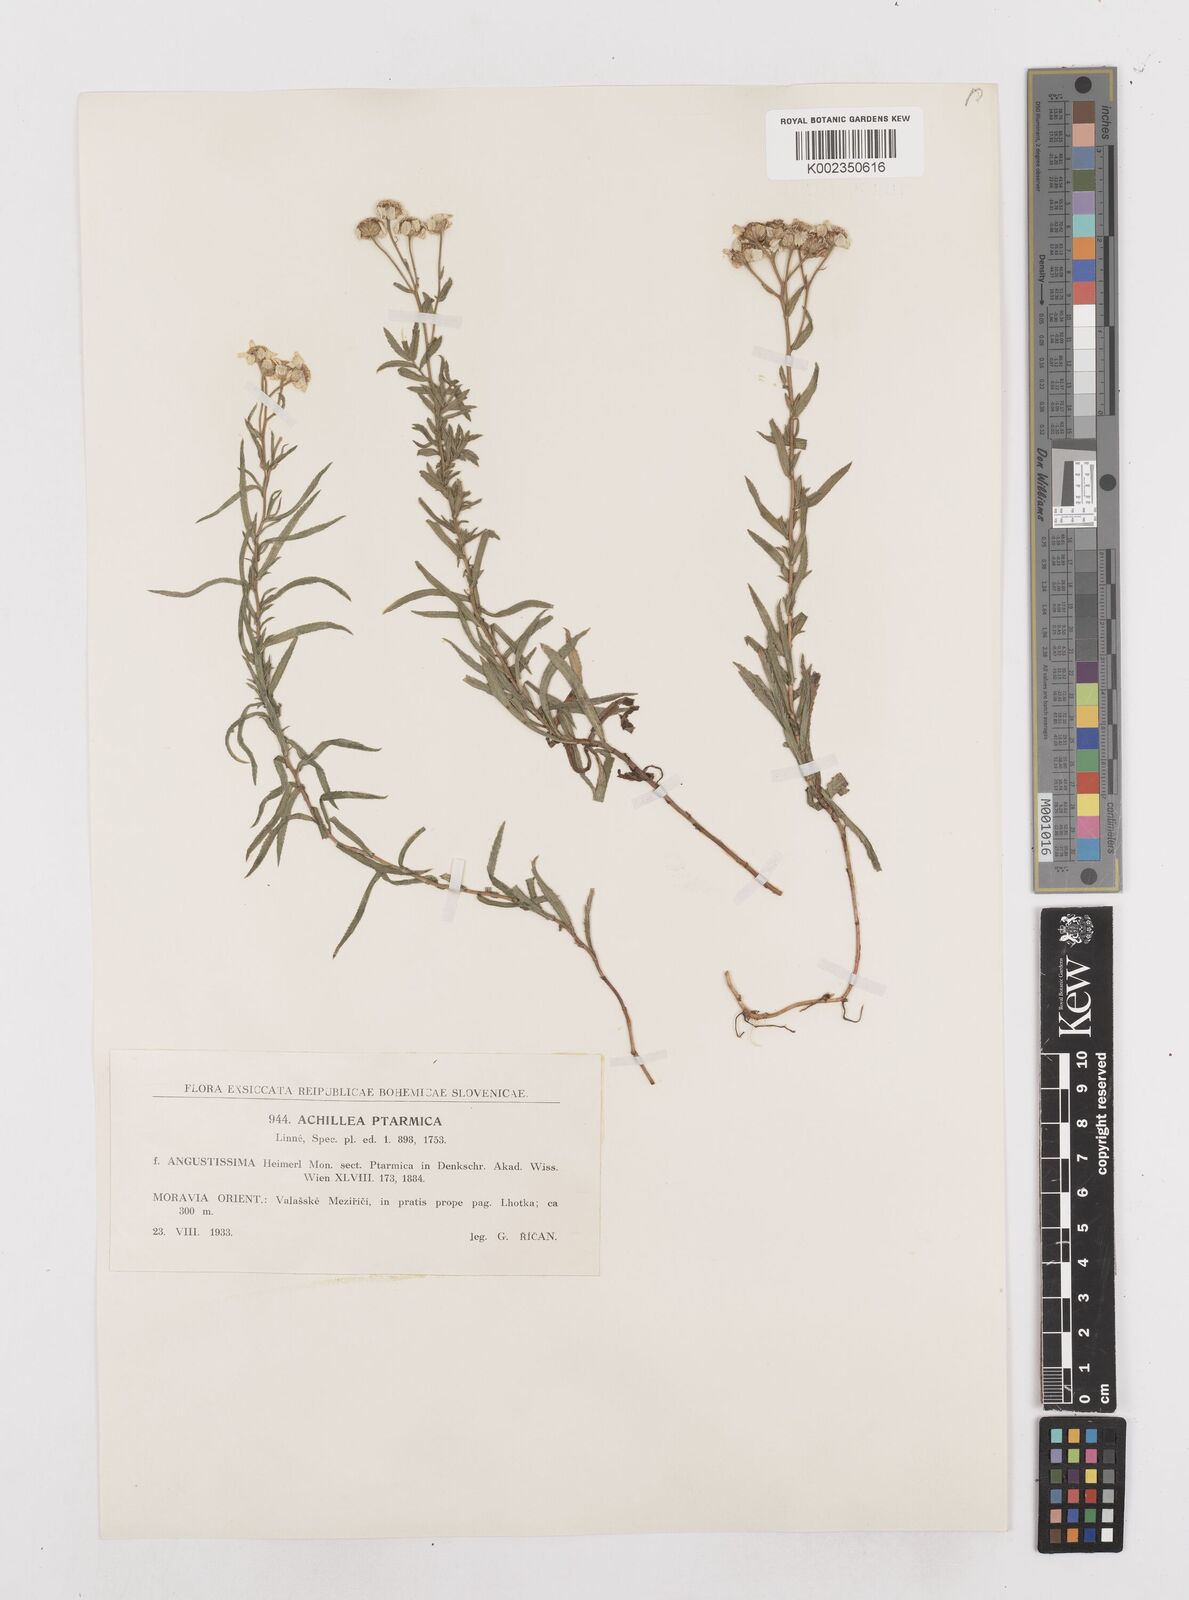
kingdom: Plantae
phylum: Tracheophyta
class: Magnoliopsida
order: Asterales
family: Asteraceae
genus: Achillea
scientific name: Achillea
